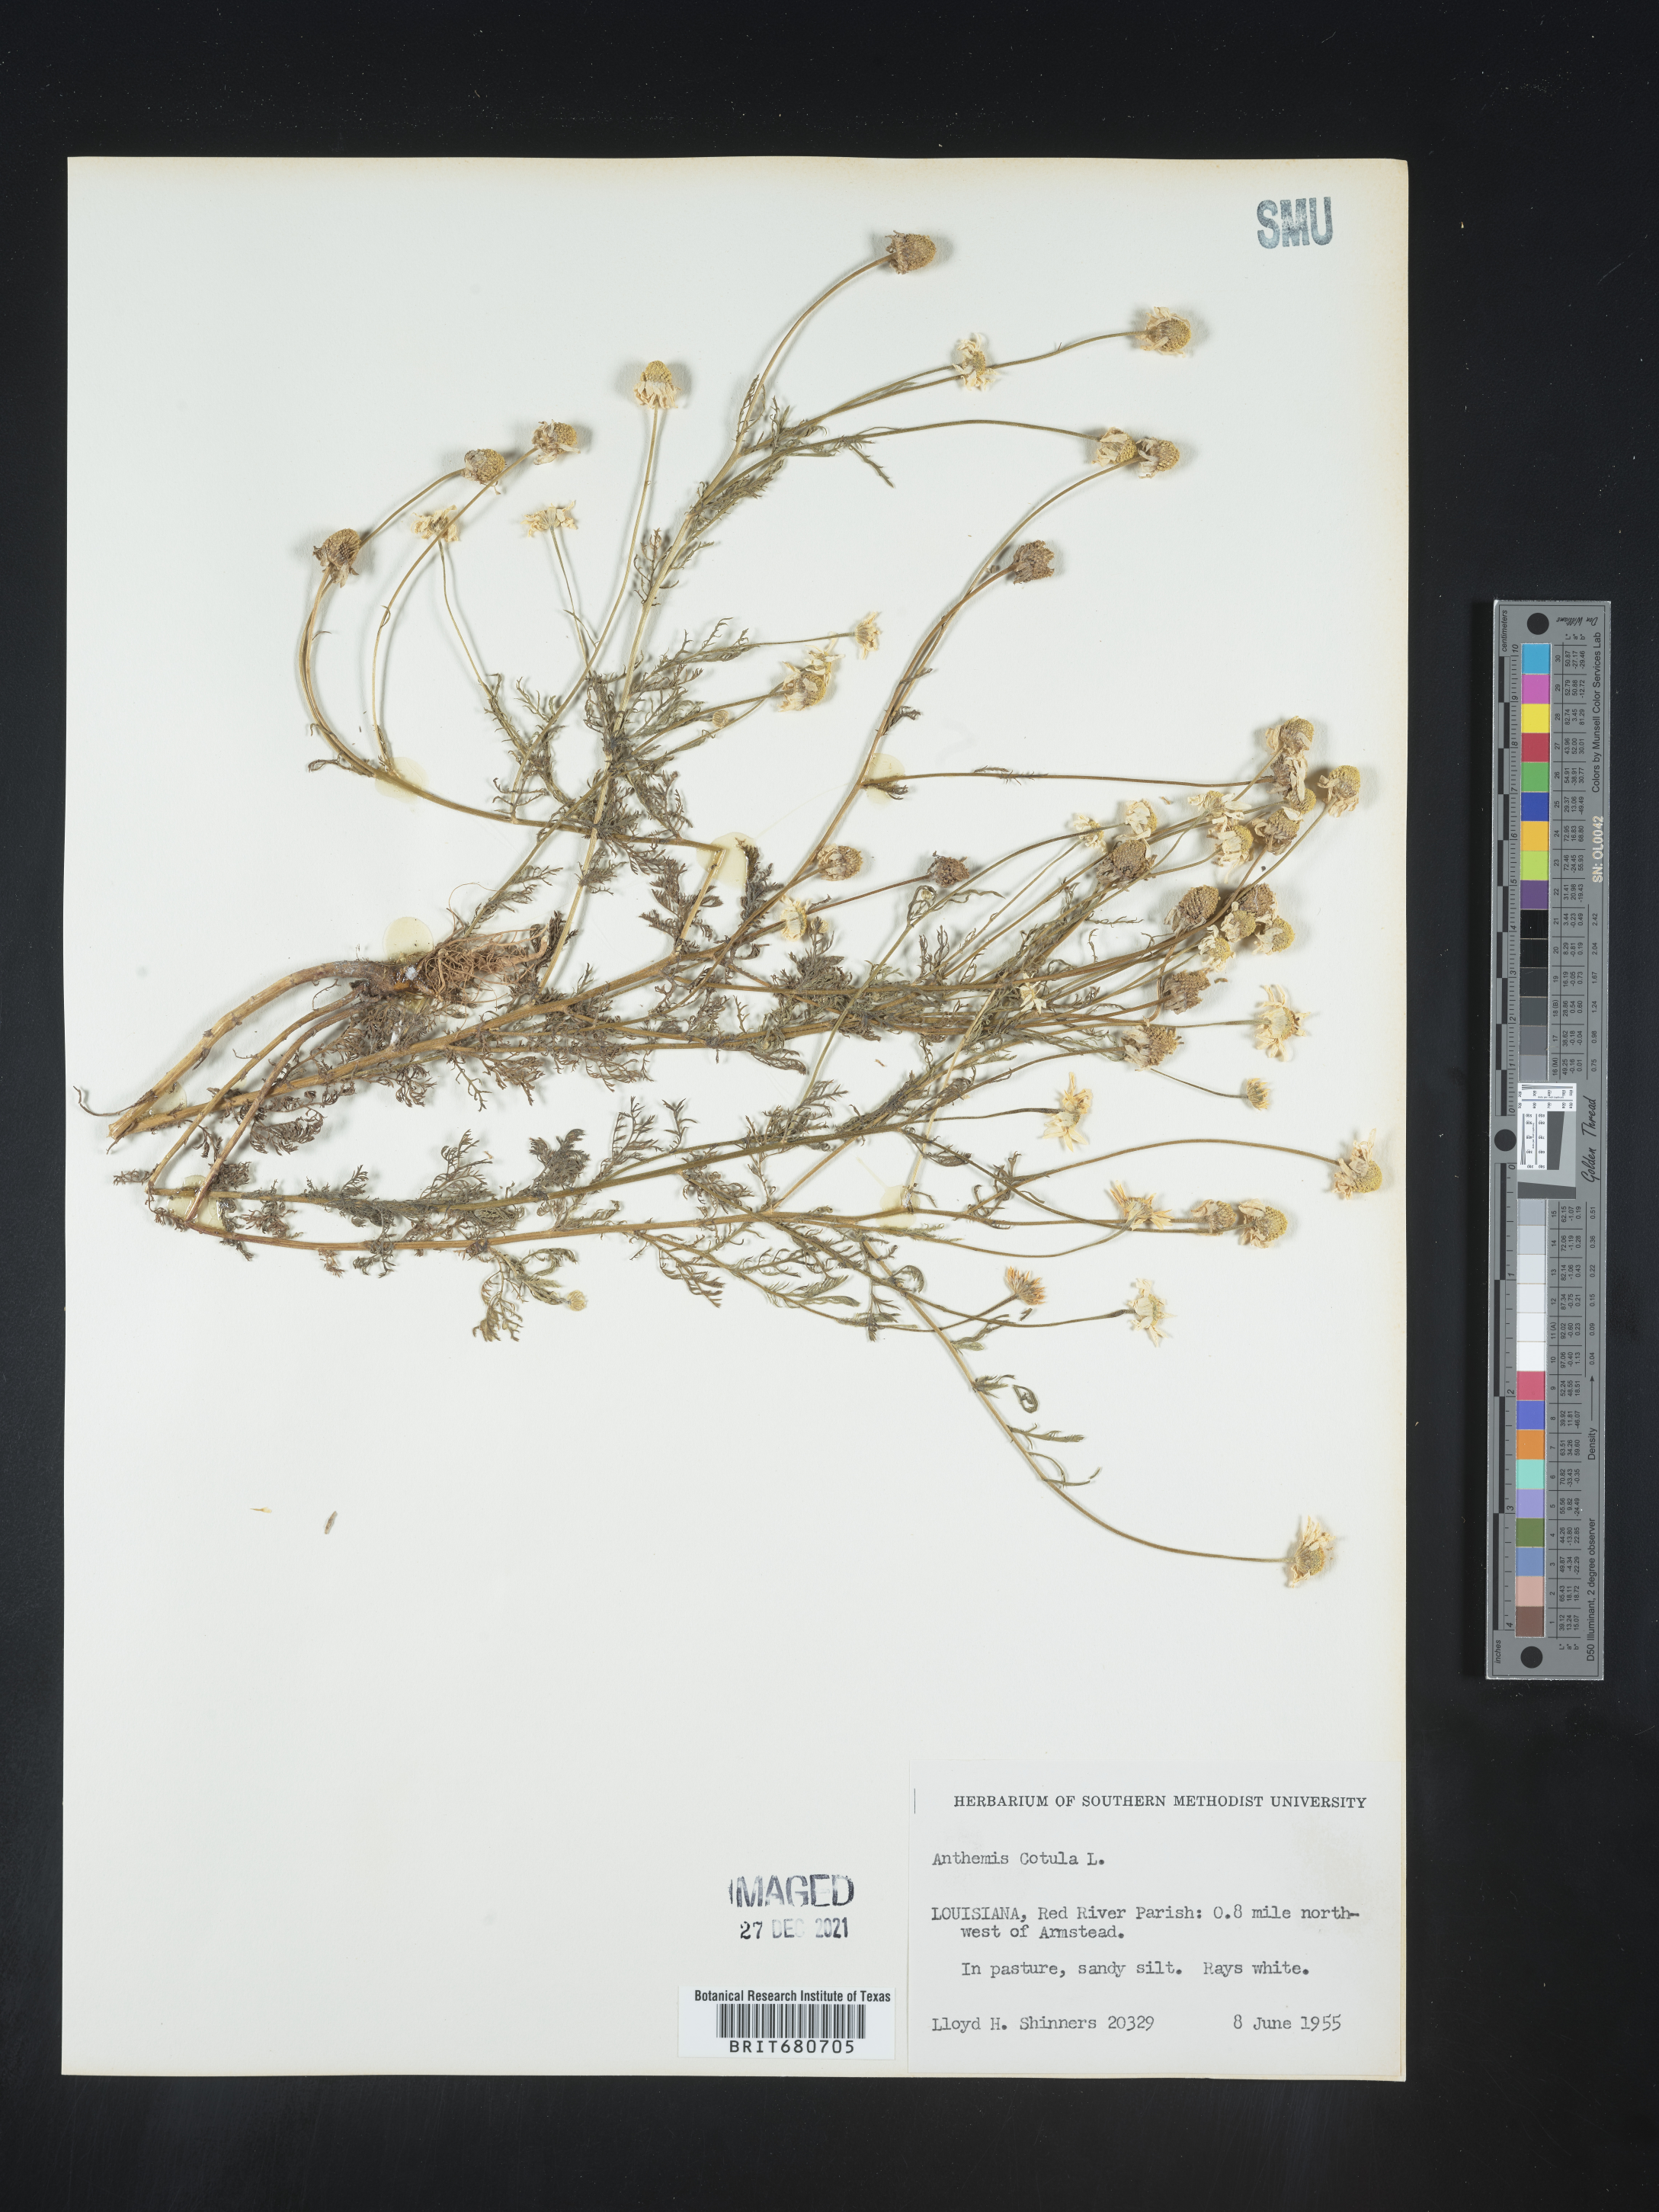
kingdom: Plantae
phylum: Tracheophyta
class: Magnoliopsida
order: Asterales
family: Asteraceae
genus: Anthemis
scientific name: Anthemis cotula
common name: Stinking chamomile
